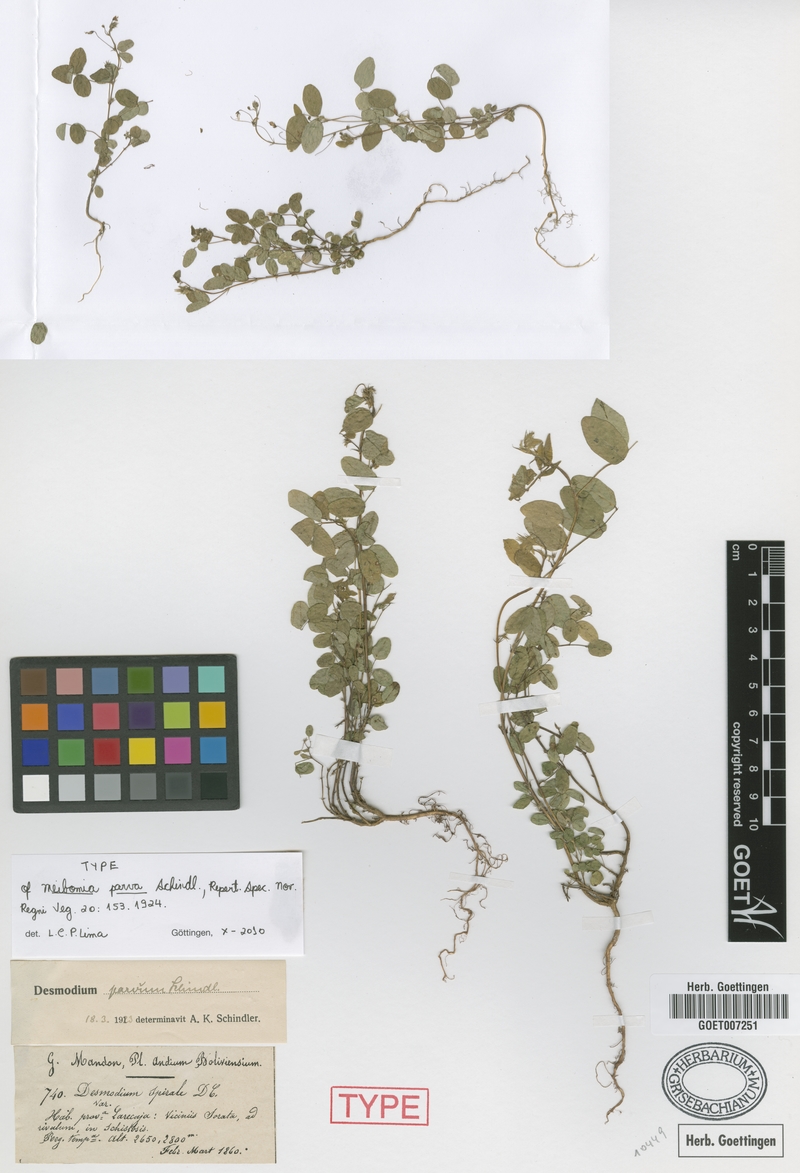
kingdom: Plantae
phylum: Tracheophyta
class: Magnoliopsida
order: Fabales
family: Fabaceae
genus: Desmodium
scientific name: Desmodium procumbens
